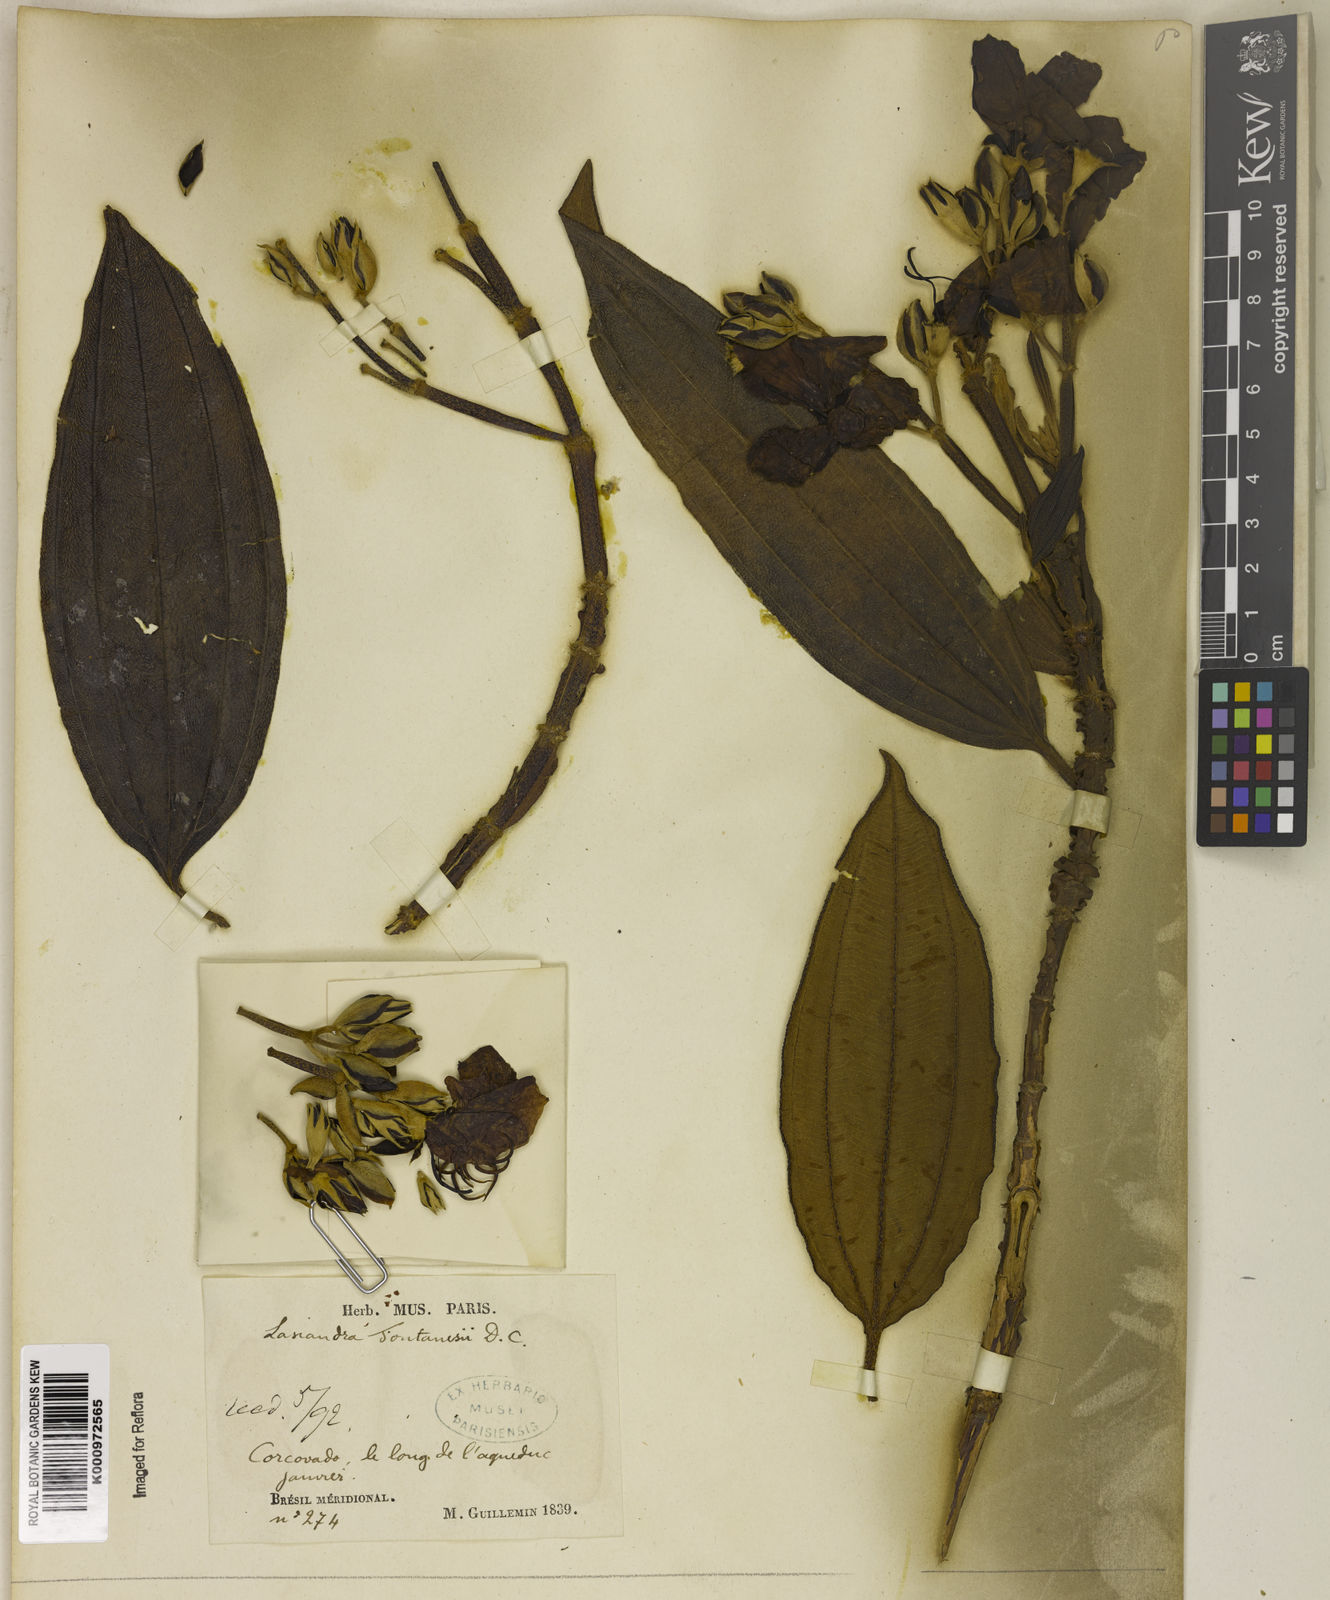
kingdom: Plantae
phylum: Tracheophyta
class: Magnoliopsida
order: Myrtales
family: Melastomataceae
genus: Pleroma
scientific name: Pleroma granulosum
